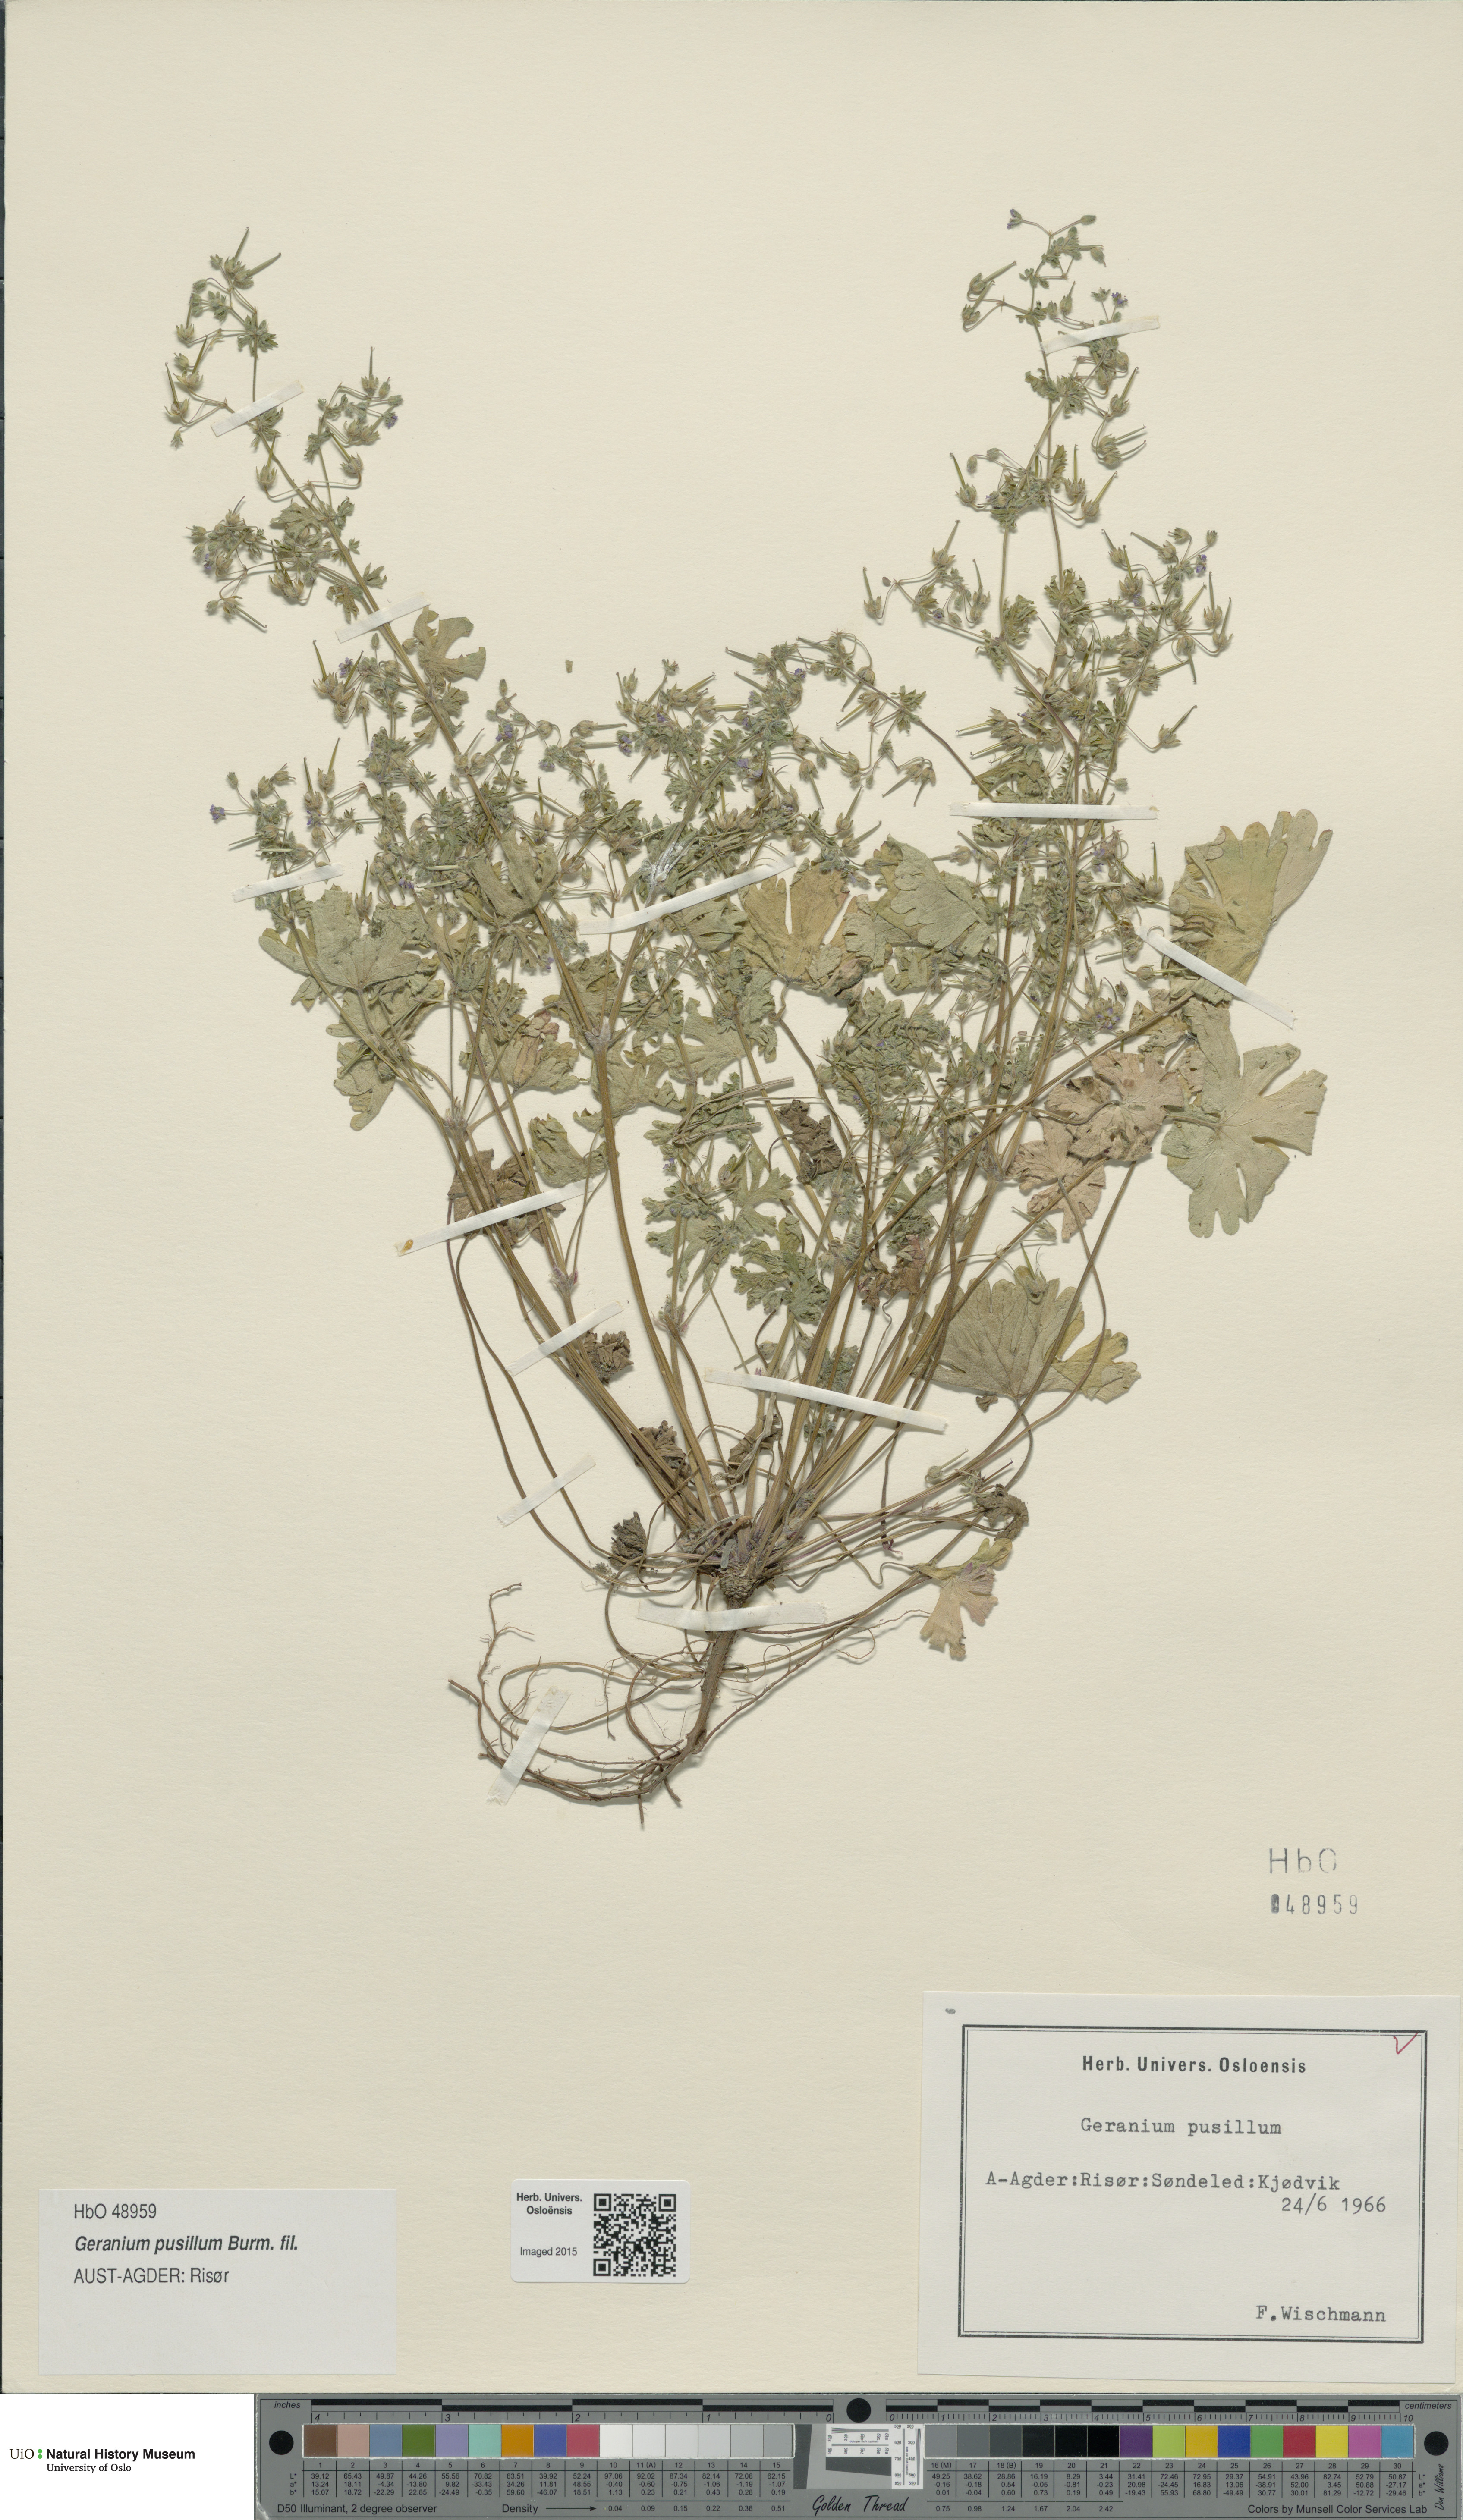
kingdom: Plantae
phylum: Tracheophyta
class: Magnoliopsida
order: Geraniales
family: Geraniaceae
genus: Geranium
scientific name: Geranium pusillum
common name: Small geranium
